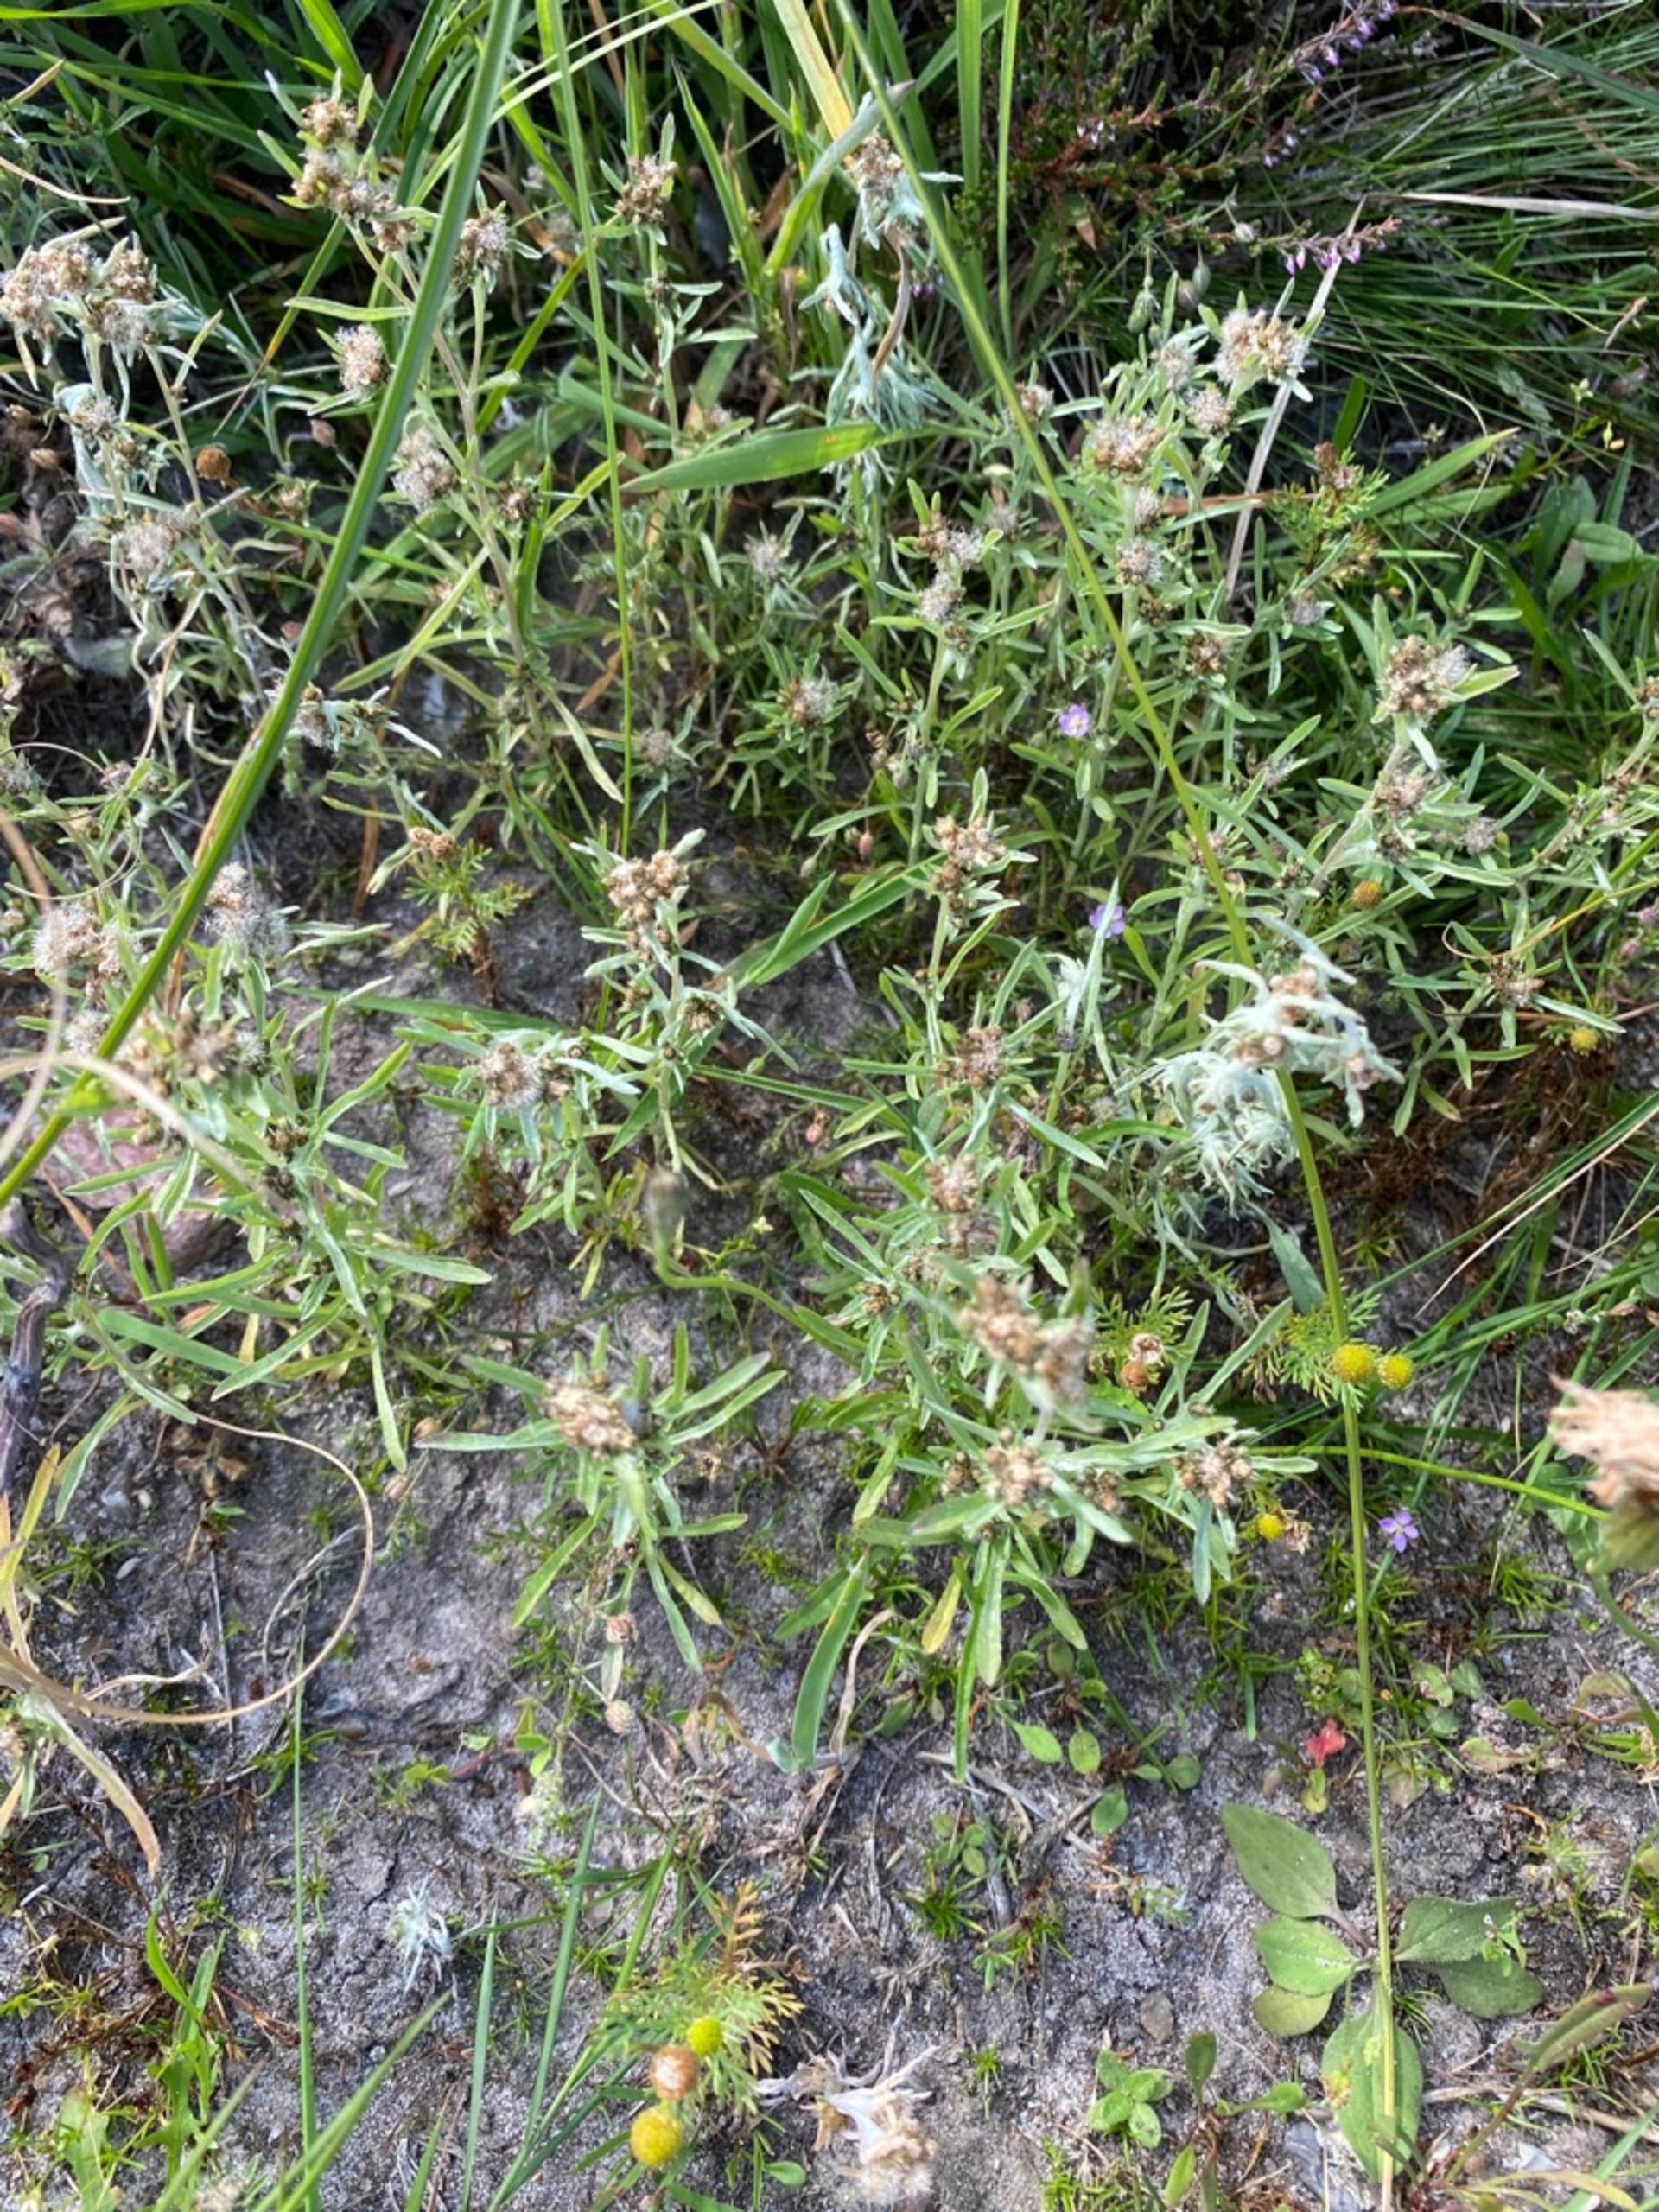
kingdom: Plantae
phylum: Tracheophyta
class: Magnoliopsida
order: Asterales
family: Asteraceae
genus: Gnaphalium
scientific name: Gnaphalium uliginosum
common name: Sump-evighedsblomst
